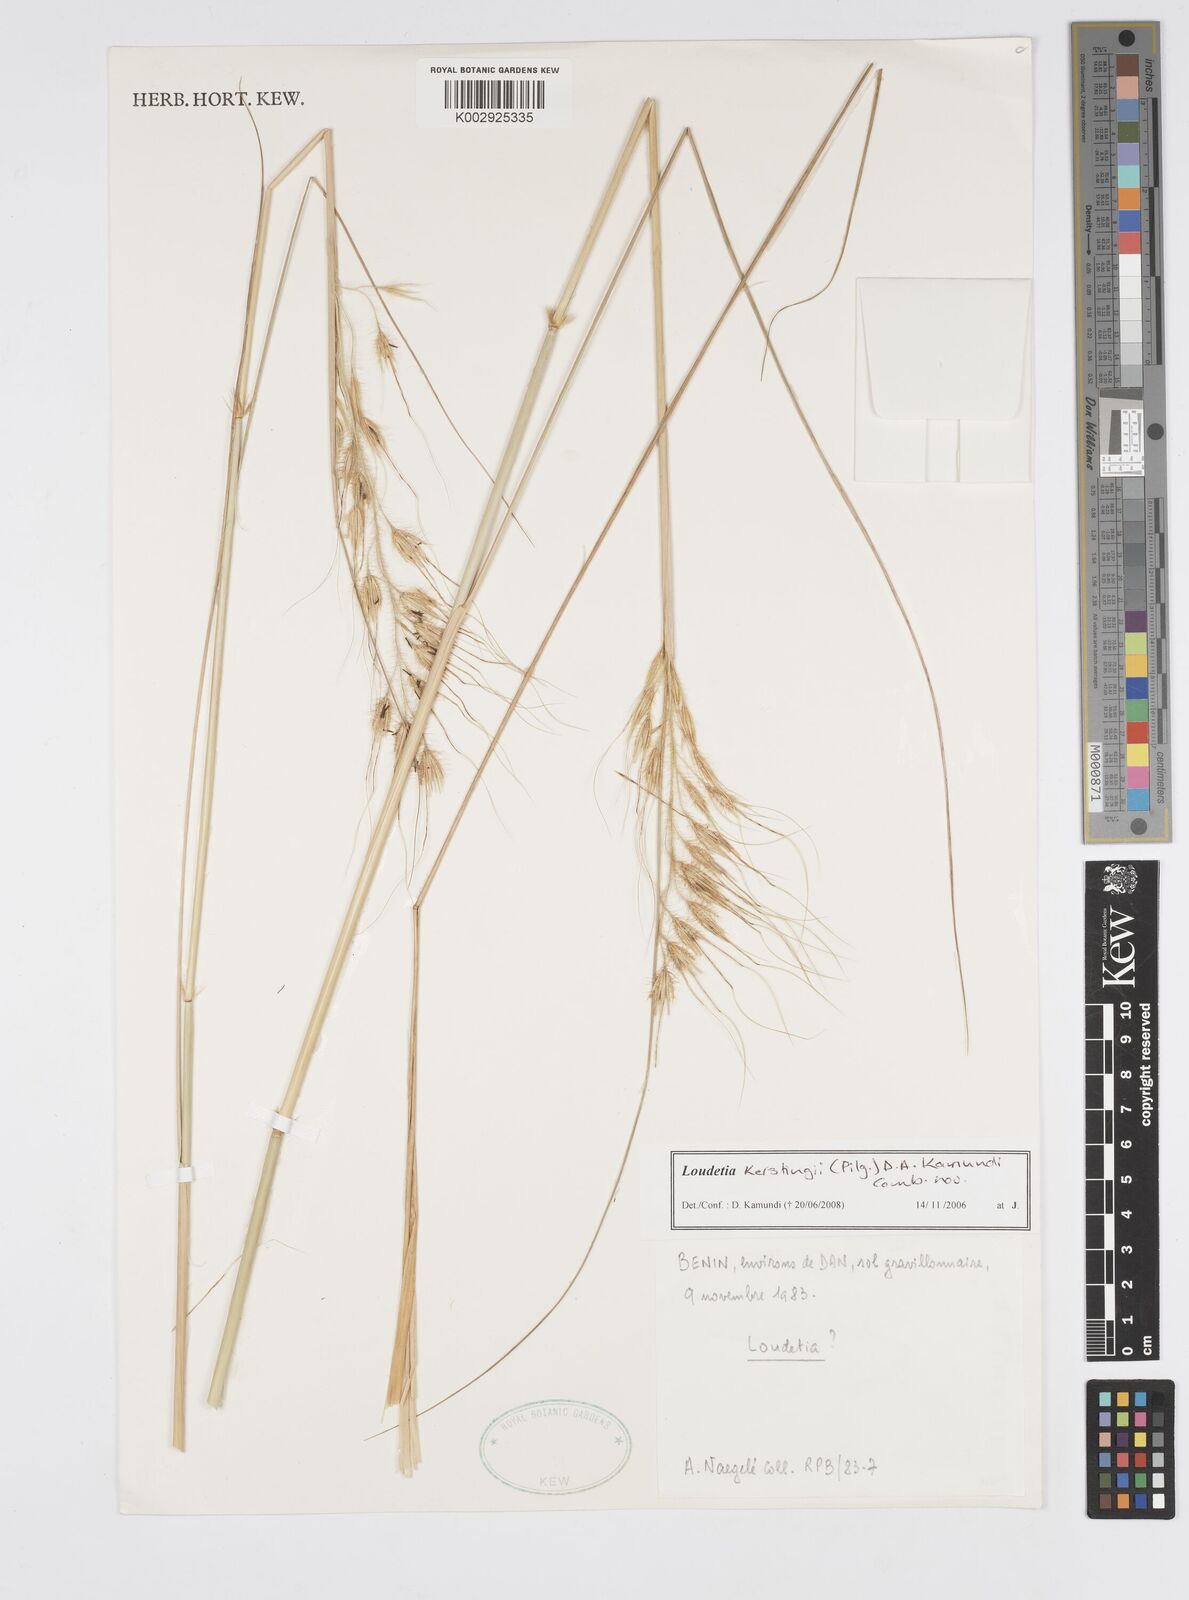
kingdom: Plantae
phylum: Tracheophyta
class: Liliopsida
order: Poales
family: Poaceae
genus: Loudetiopsis
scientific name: Loudetiopsis kerstingii
